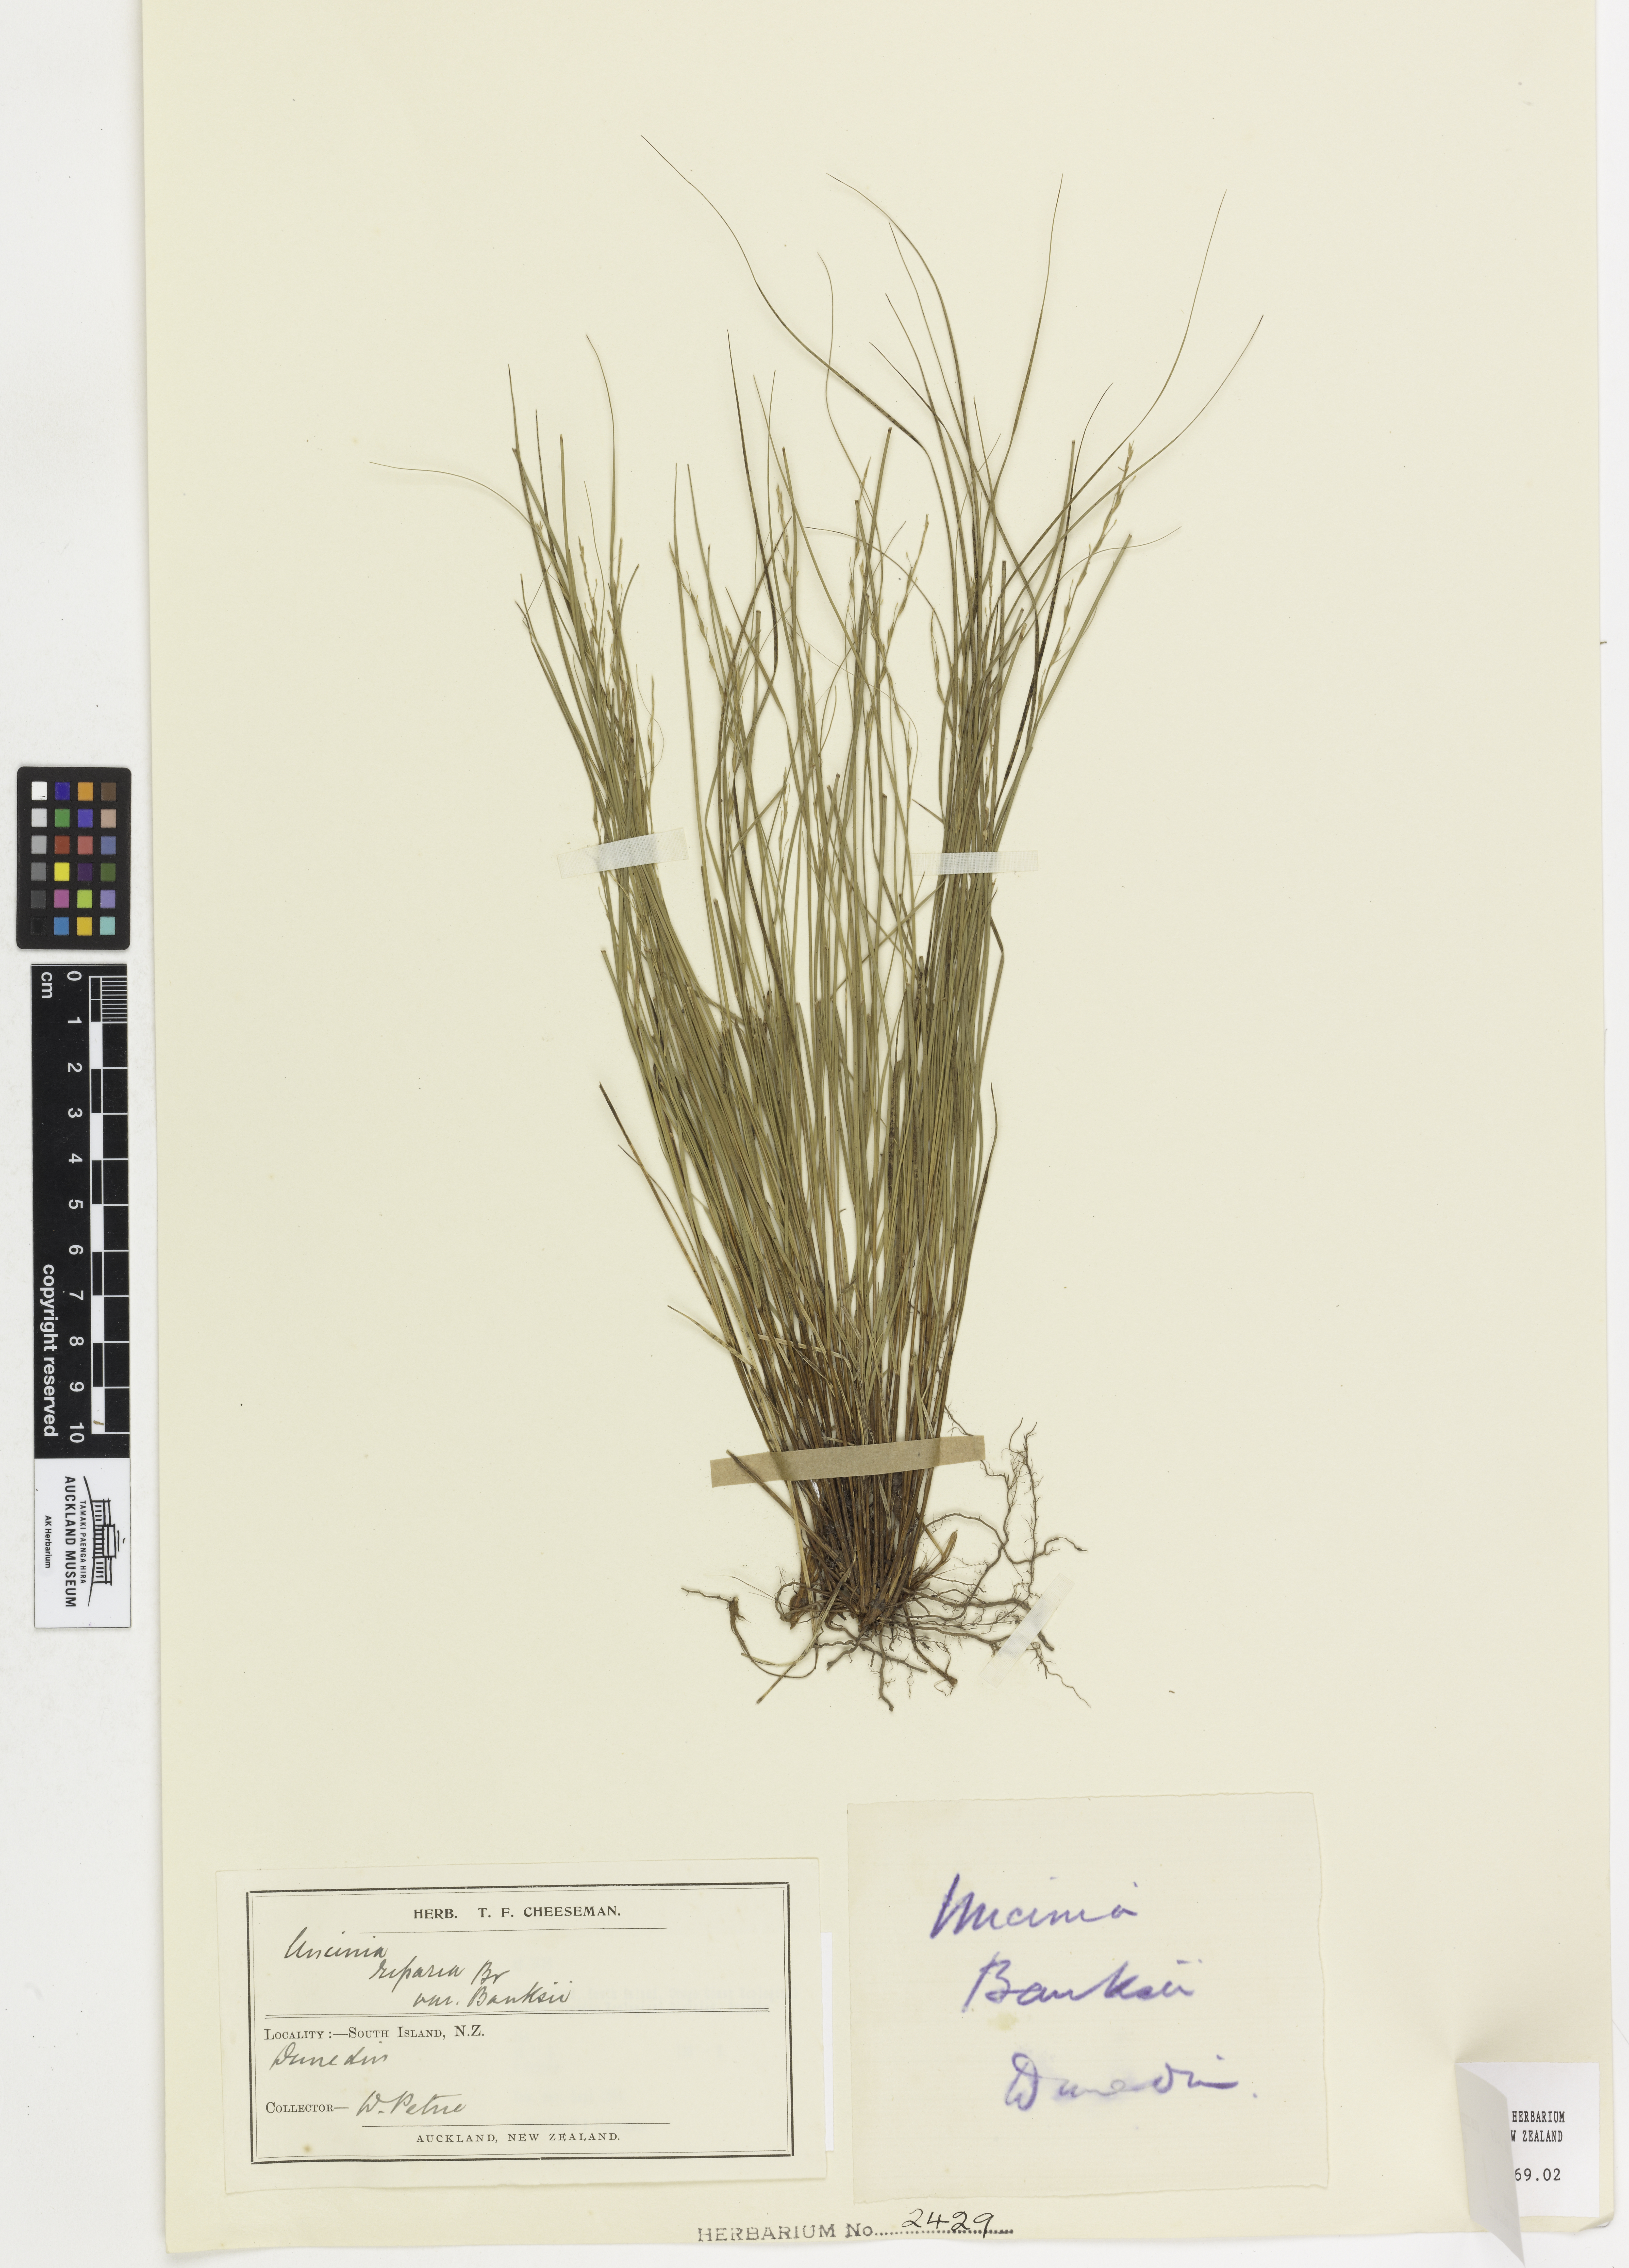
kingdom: Plantae
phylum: Tracheophyta
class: Liliopsida
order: Poales
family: Cyperaceae
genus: Carex
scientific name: Carex banksiana
